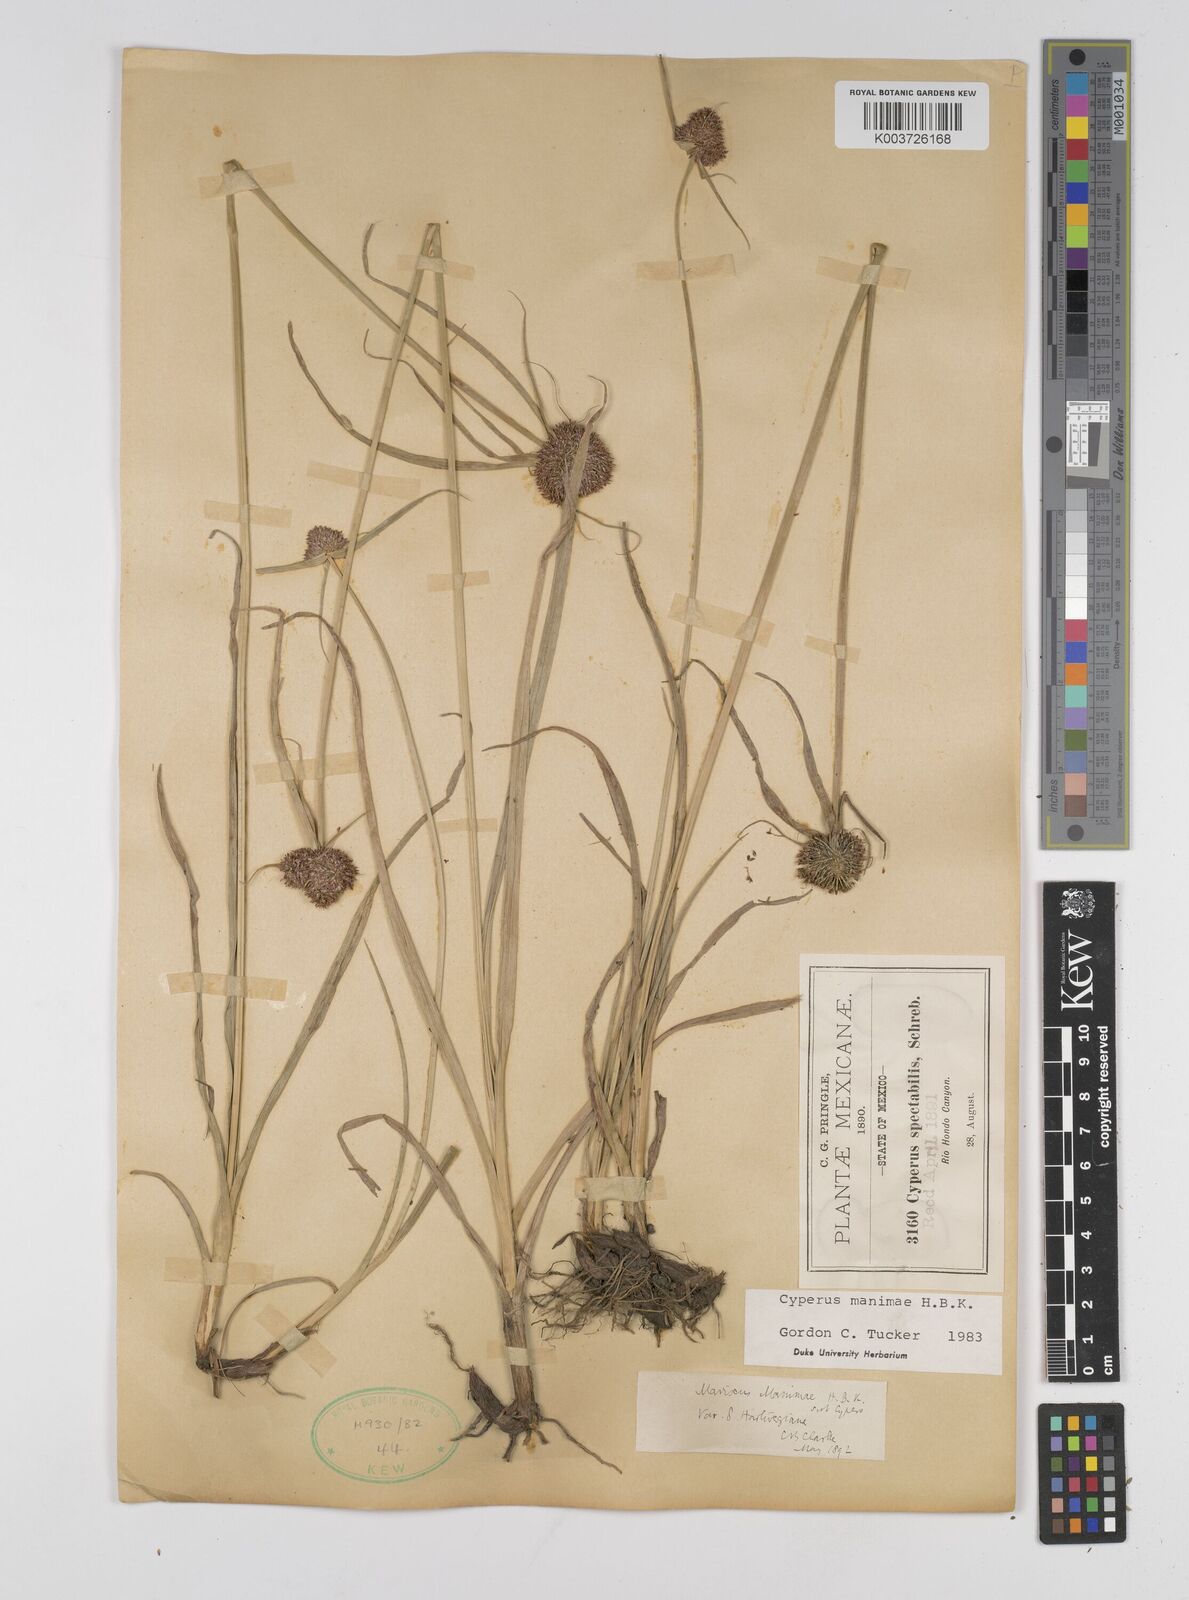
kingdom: Plantae
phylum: Tracheophyta
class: Liliopsida
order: Poales
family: Cyperaceae
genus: Cyperus
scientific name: Cyperus manimae
